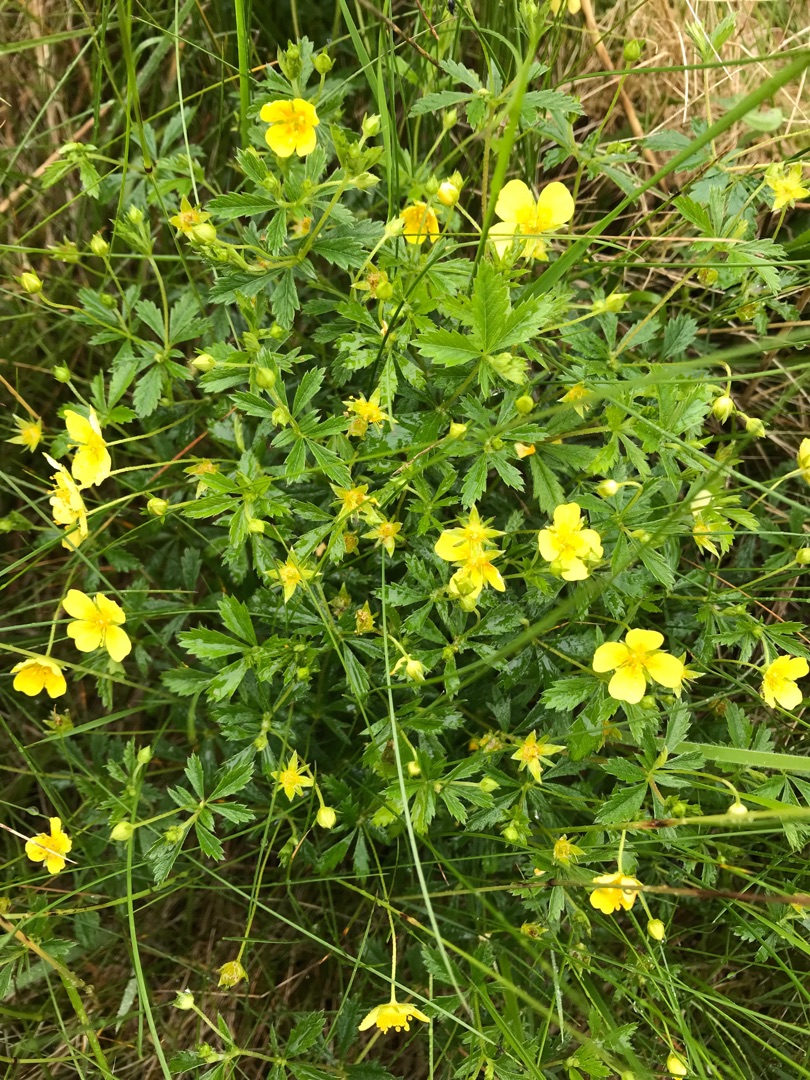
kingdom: Plantae
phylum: Tracheophyta
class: Magnoliopsida
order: Rosales
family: Rosaceae
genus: Potentilla
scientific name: Potentilla erecta
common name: Tormentil
